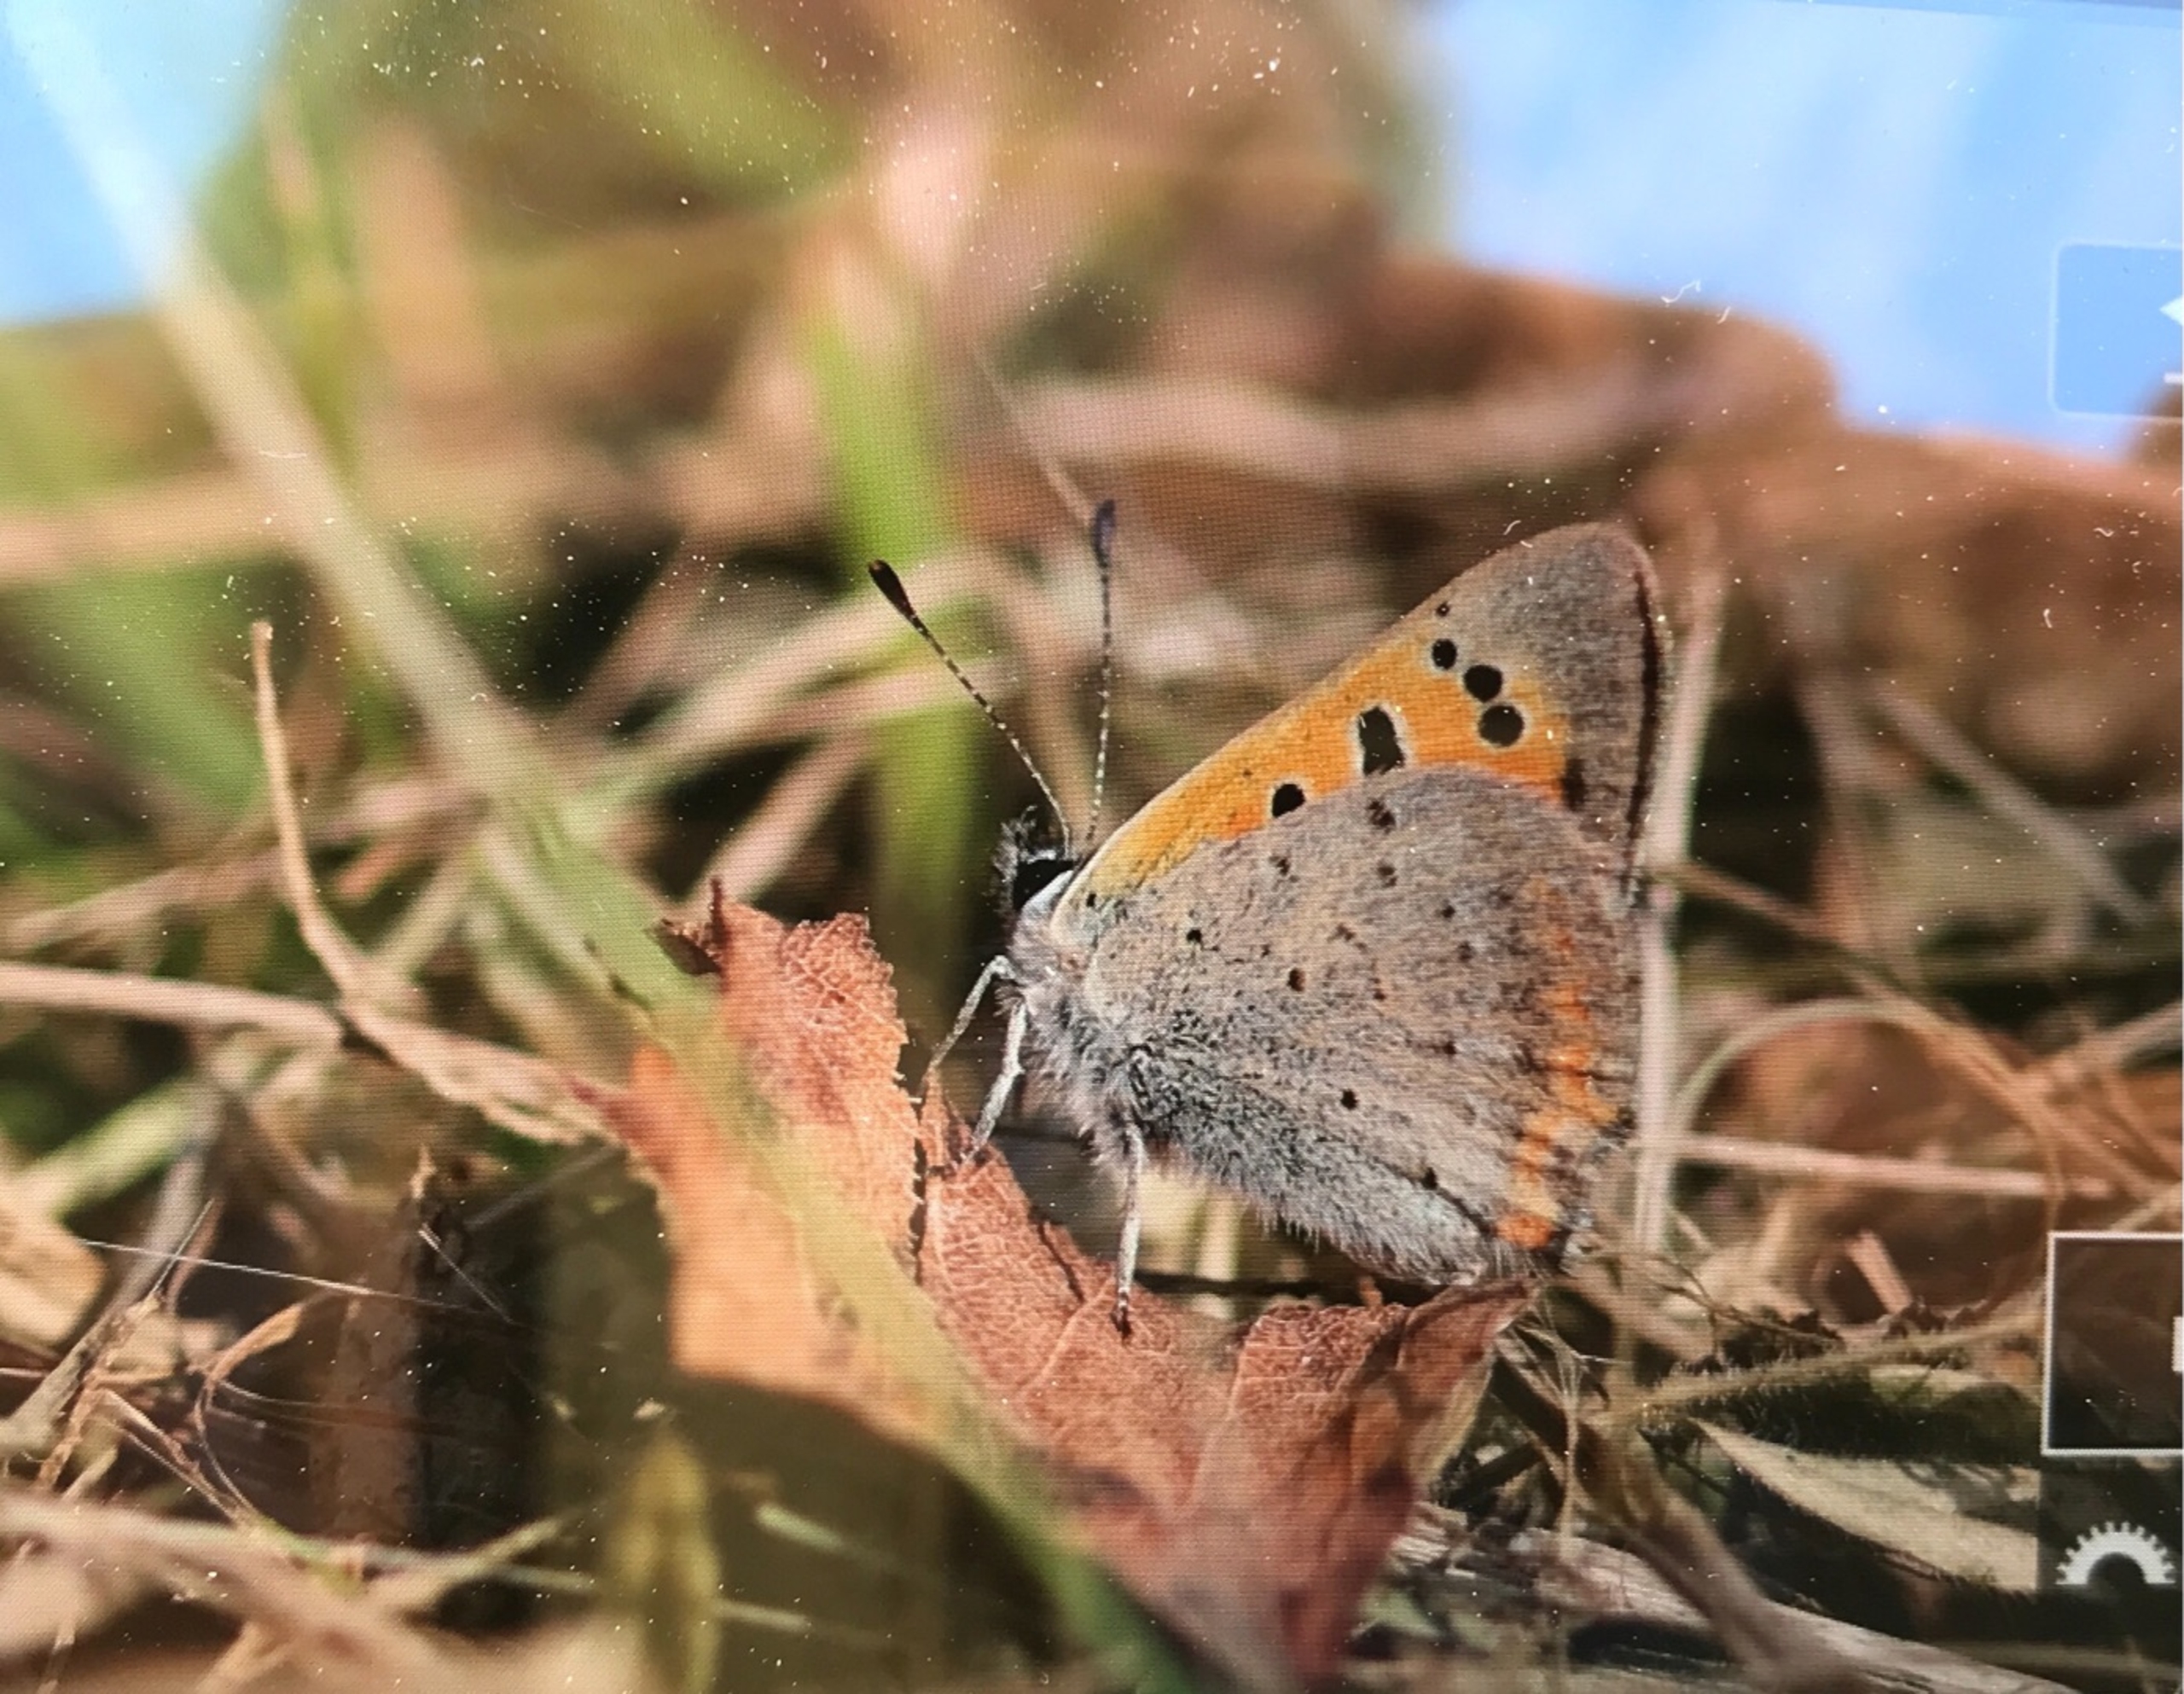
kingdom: Animalia
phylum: Arthropoda
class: Insecta
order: Lepidoptera
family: Lycaenidae
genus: Lycaena
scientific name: Lycaena phlaeas
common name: Lille ildfugl
